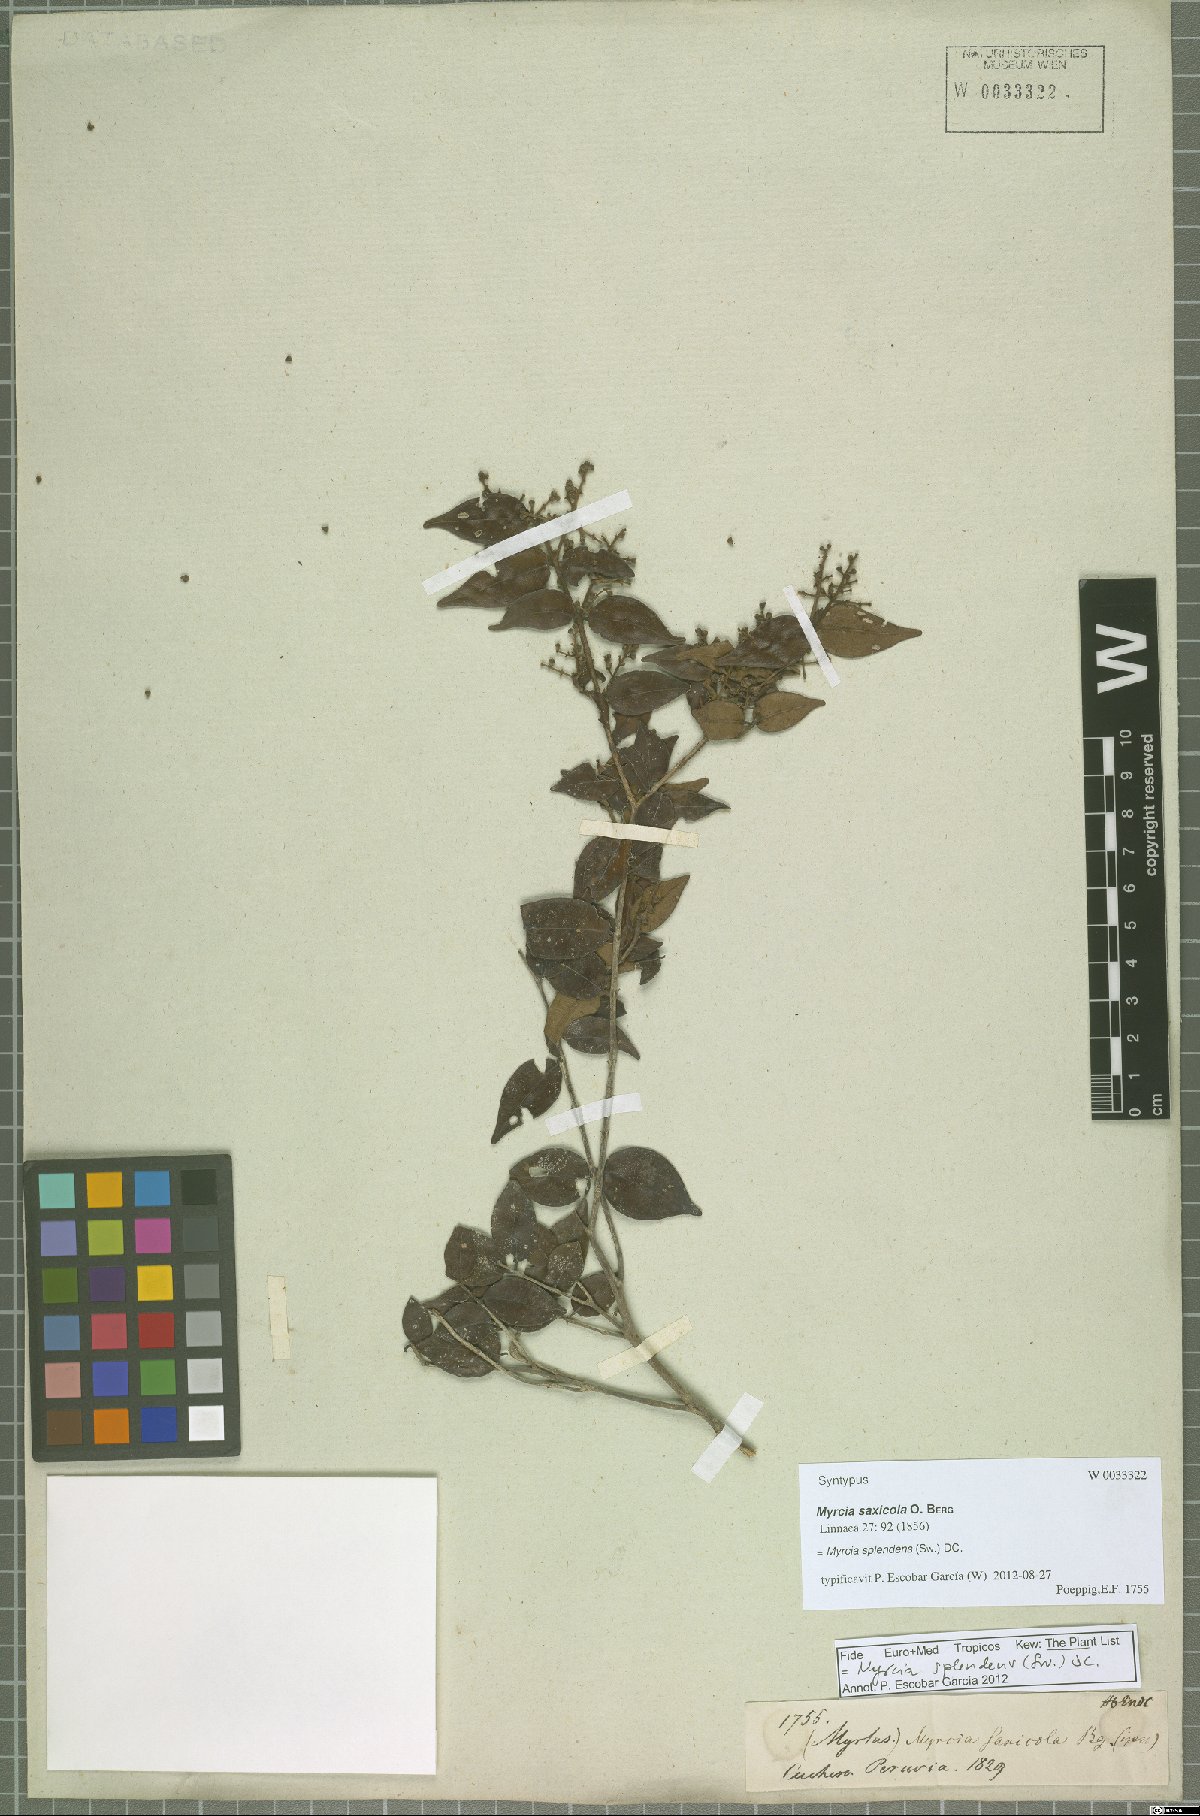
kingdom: Plantae
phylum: Tracheophyta
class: Magnoliopsida
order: Myrtales
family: Myrtaceae
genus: Myrcia
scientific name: Myrcia splendens
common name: Surinam cherry
